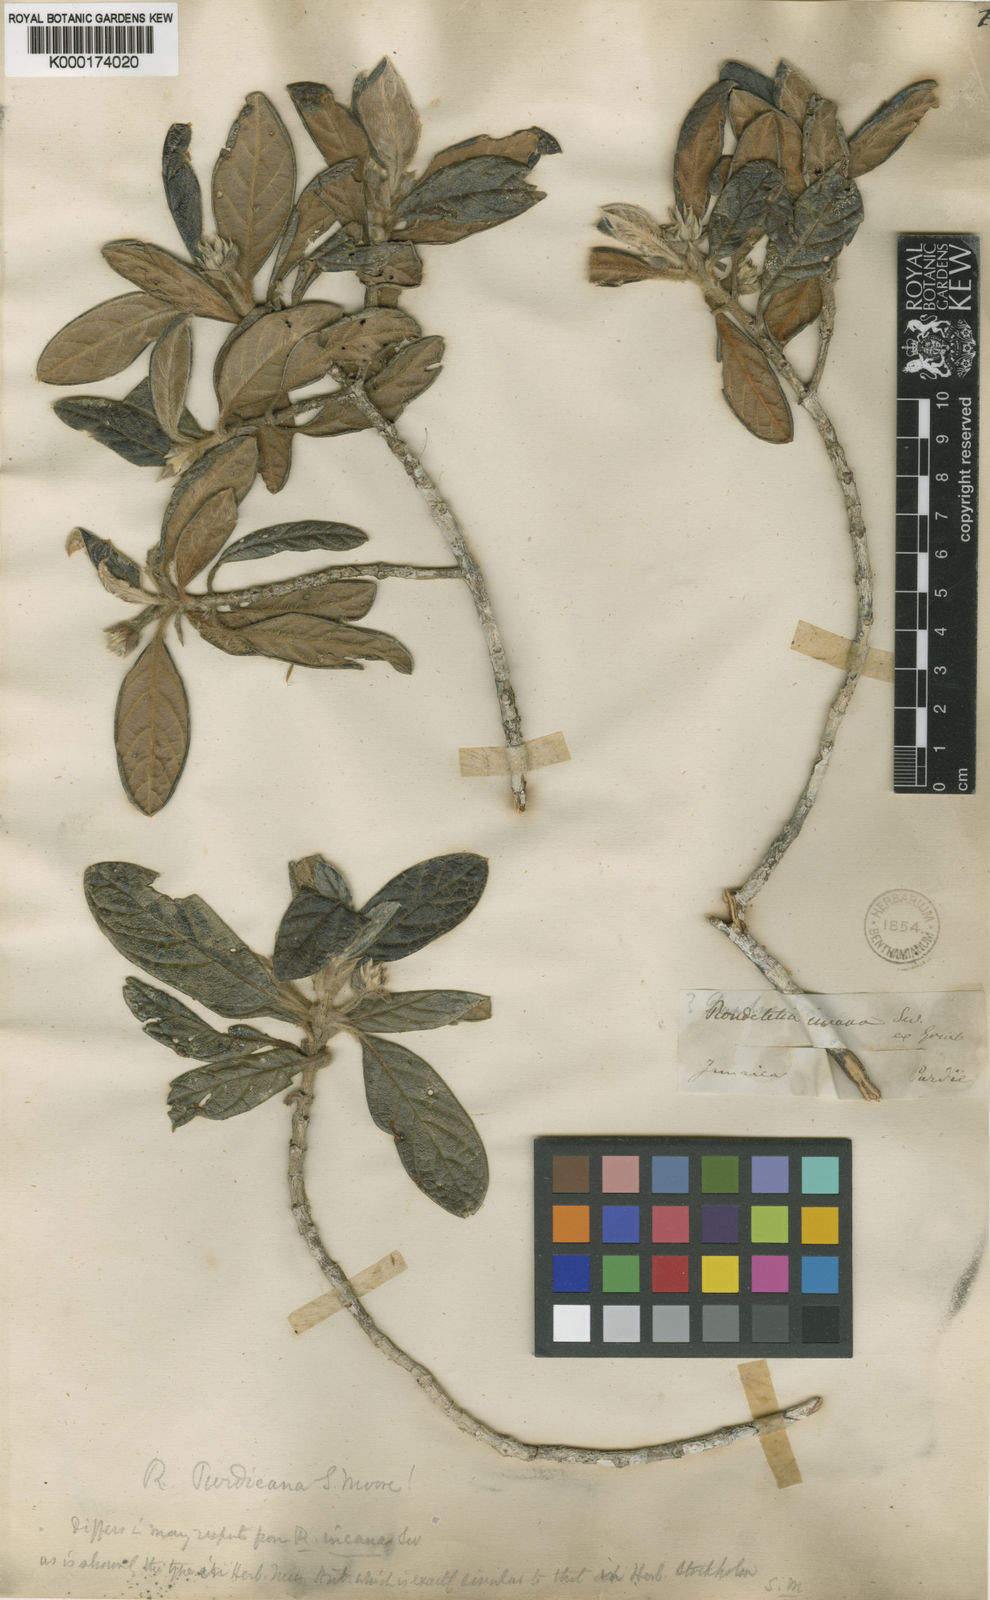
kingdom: Plantae
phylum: Tracheophyta
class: Magnoliopsida
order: Gentianales
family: Rubiaceae
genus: Rondeletia
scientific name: Rondeletia
